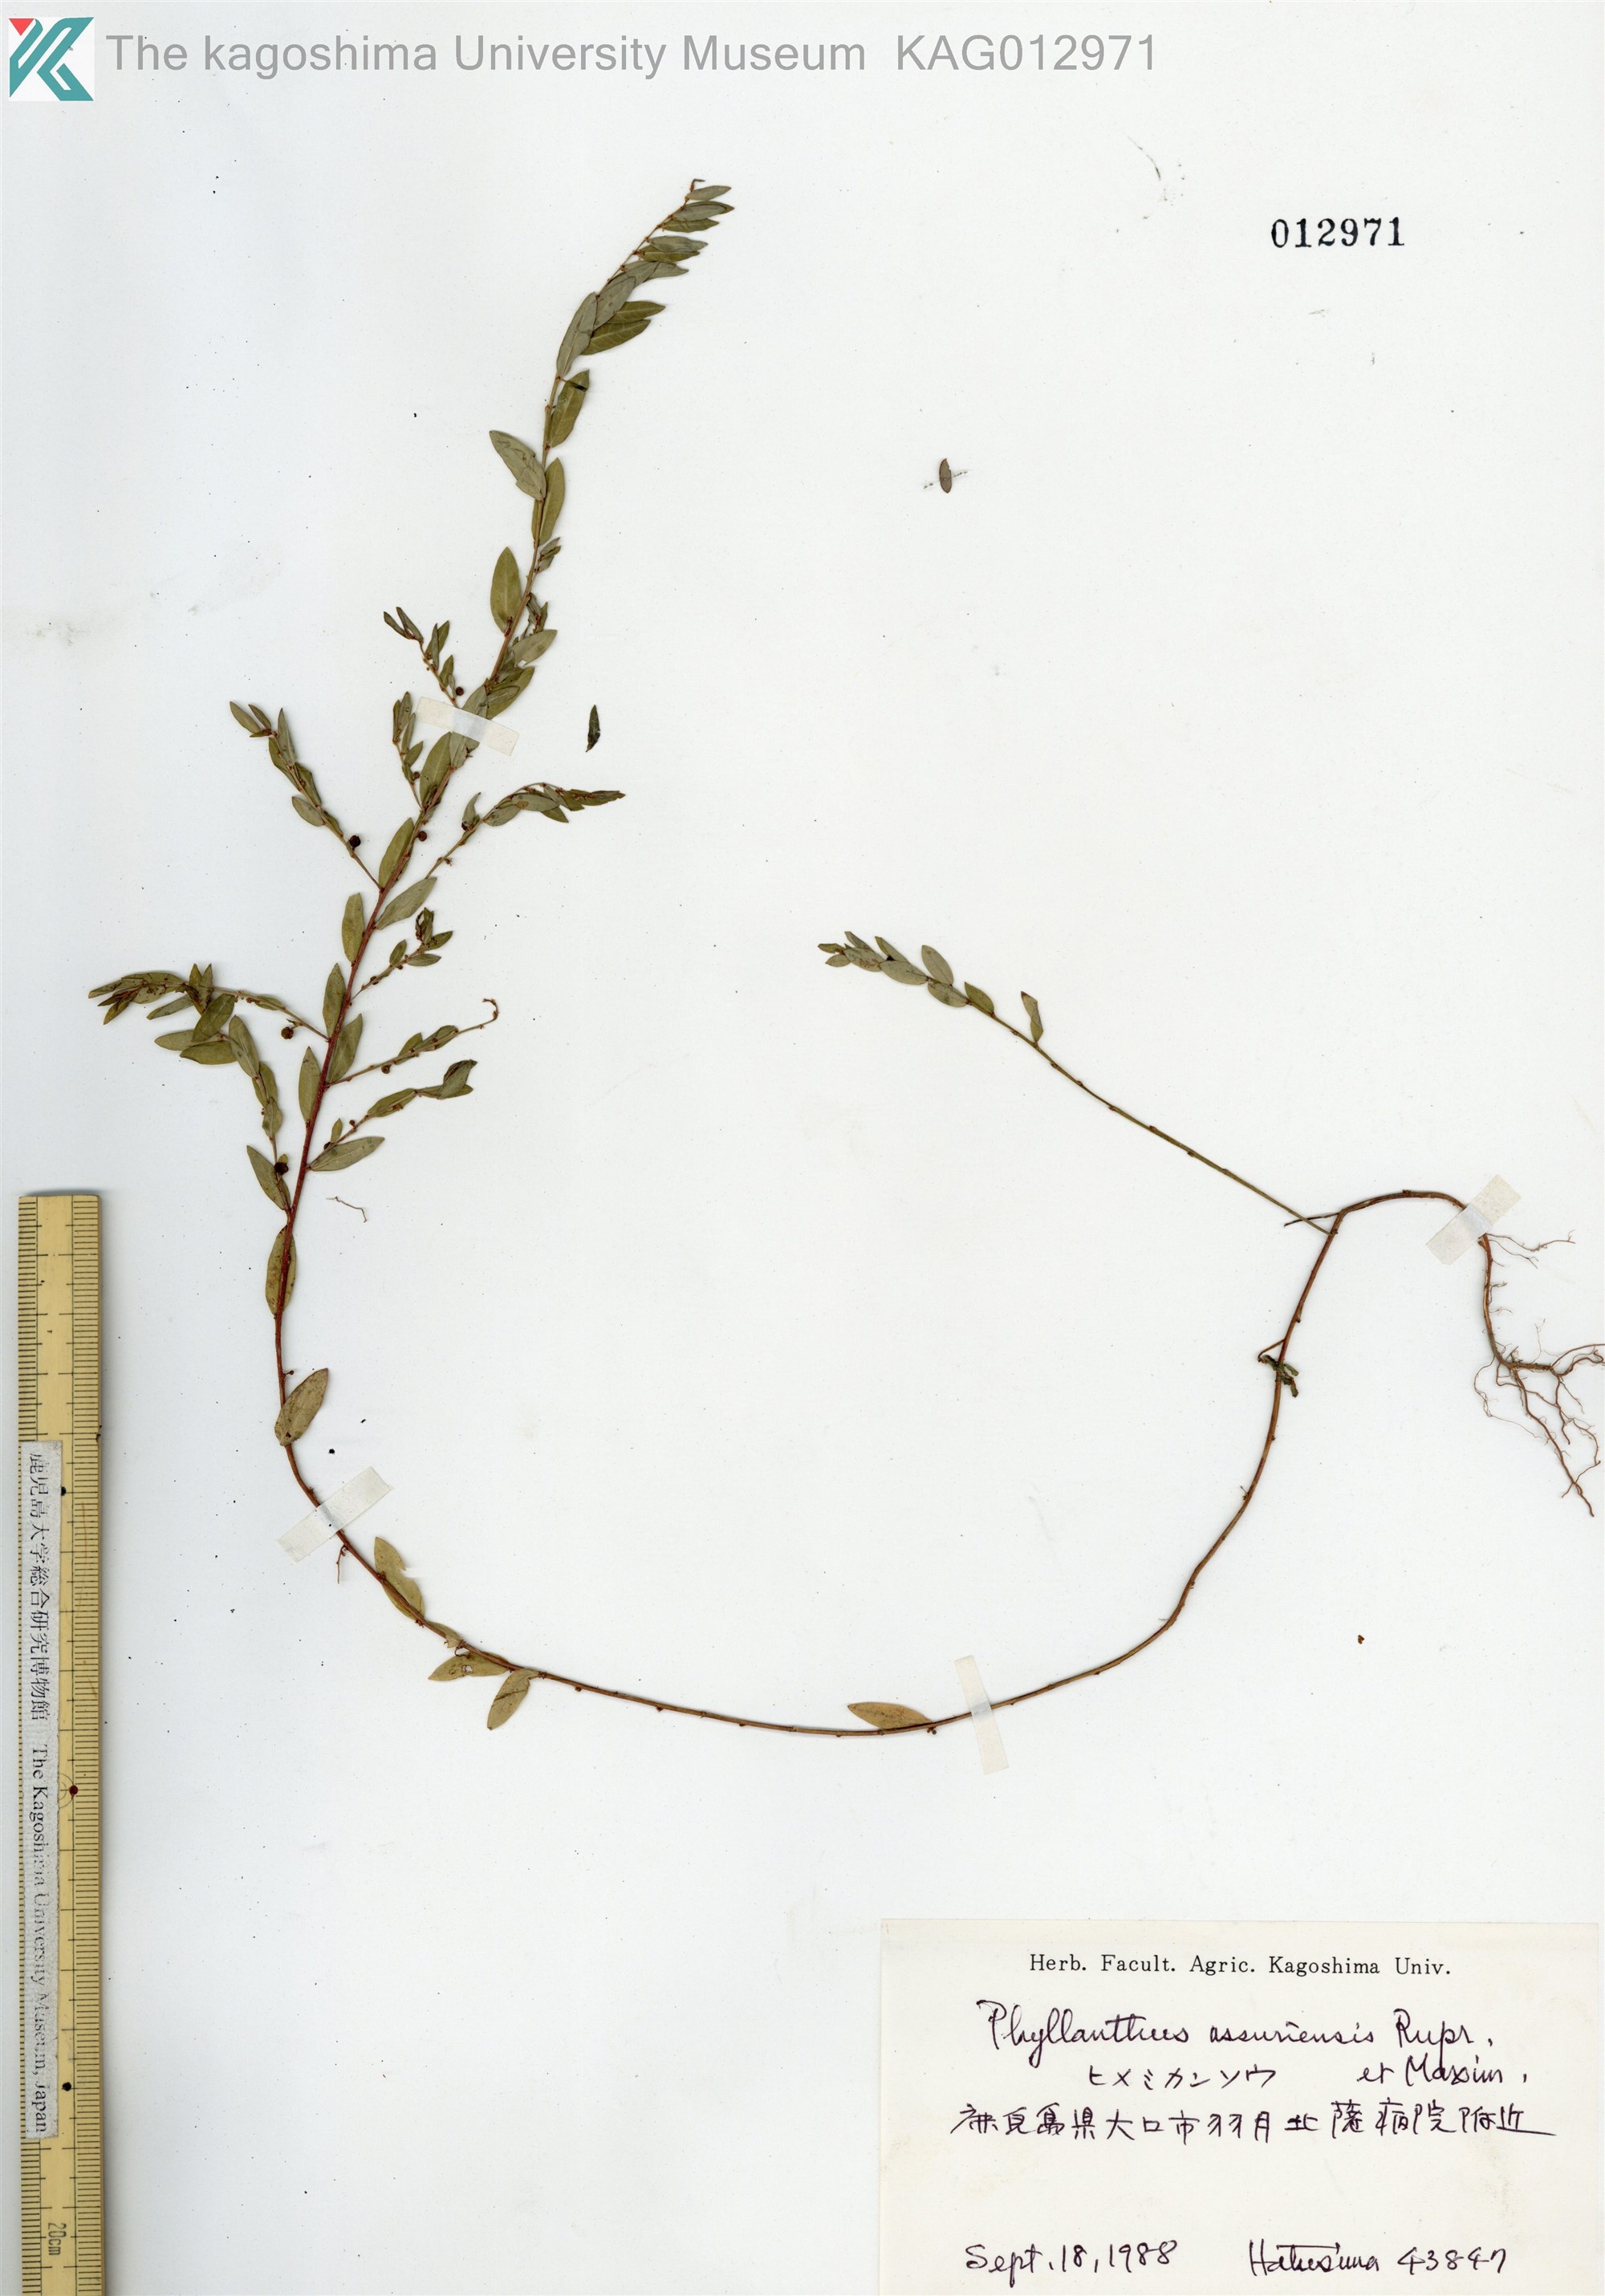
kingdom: Plantae
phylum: Tracheophyta
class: Magnoliopsida
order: Malpighiales
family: Phyllanthaceae
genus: Phyllanthus
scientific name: Phyllanthus ussuriensis
